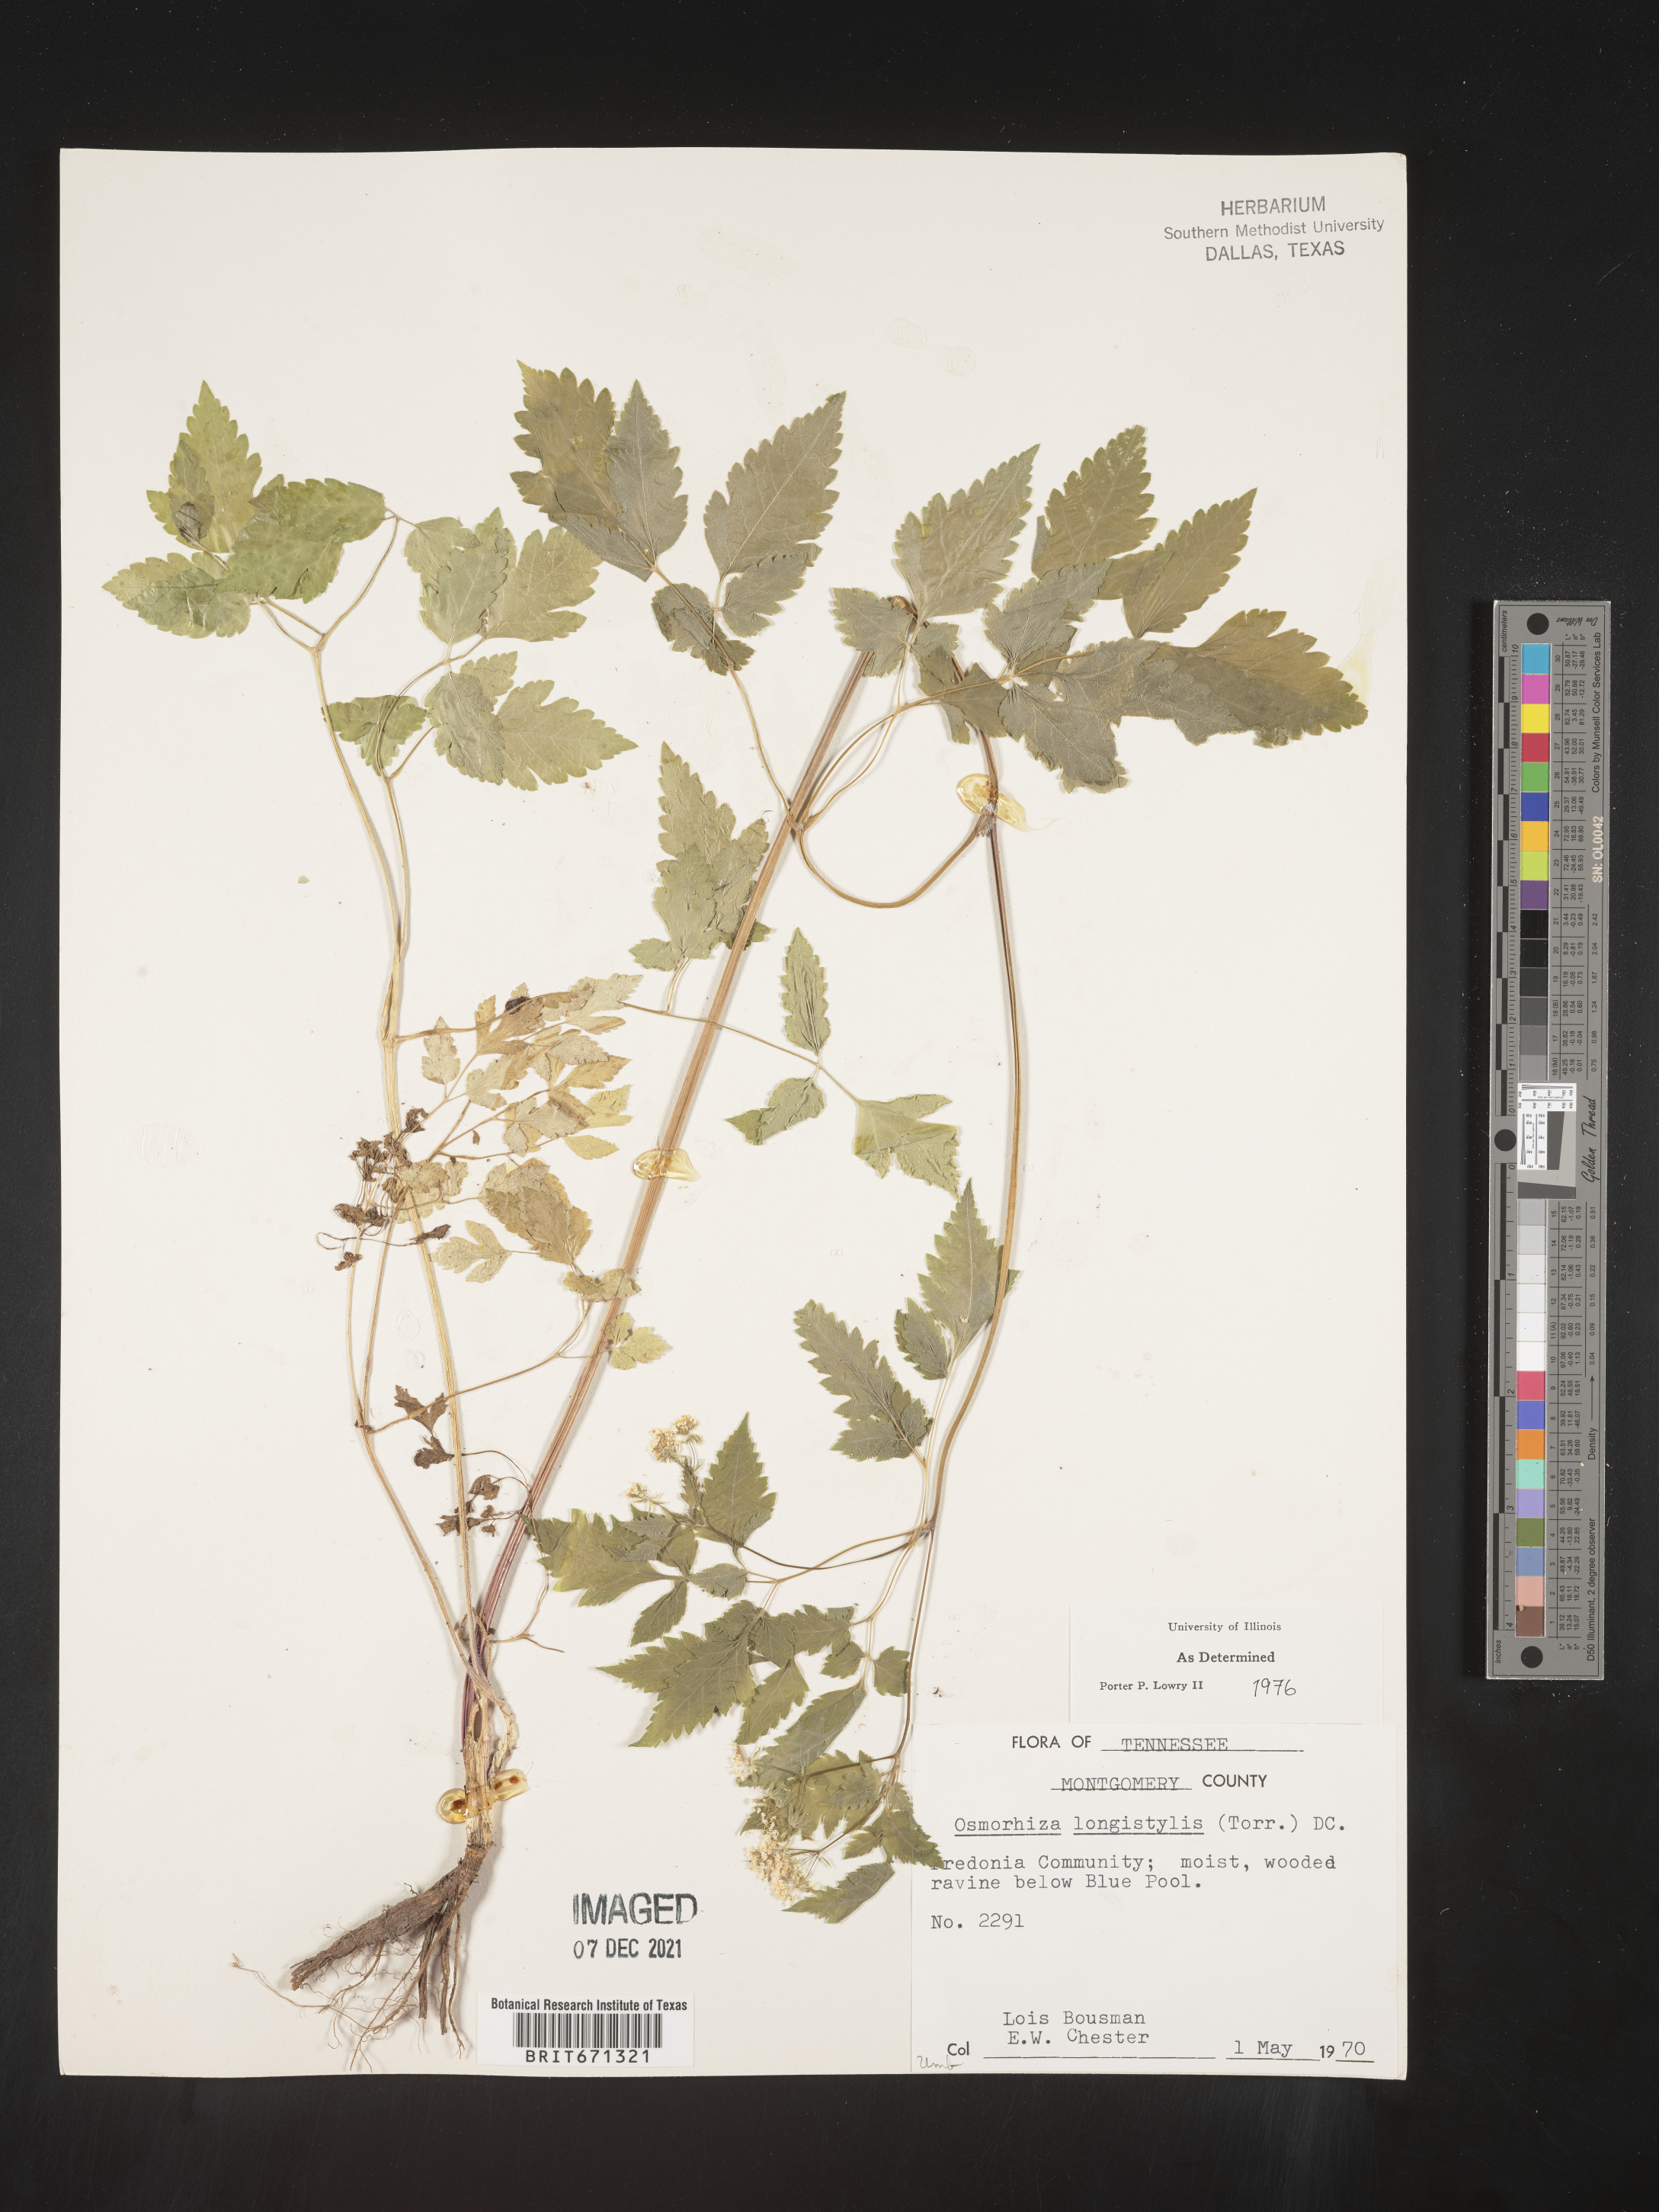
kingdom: Plantae
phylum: Tracheophyta
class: Magnoliopsida
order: Apiales
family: Apiaceae
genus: Osmorhiza
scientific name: Osmorhiza longistylis
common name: Smooth sweet cicely
